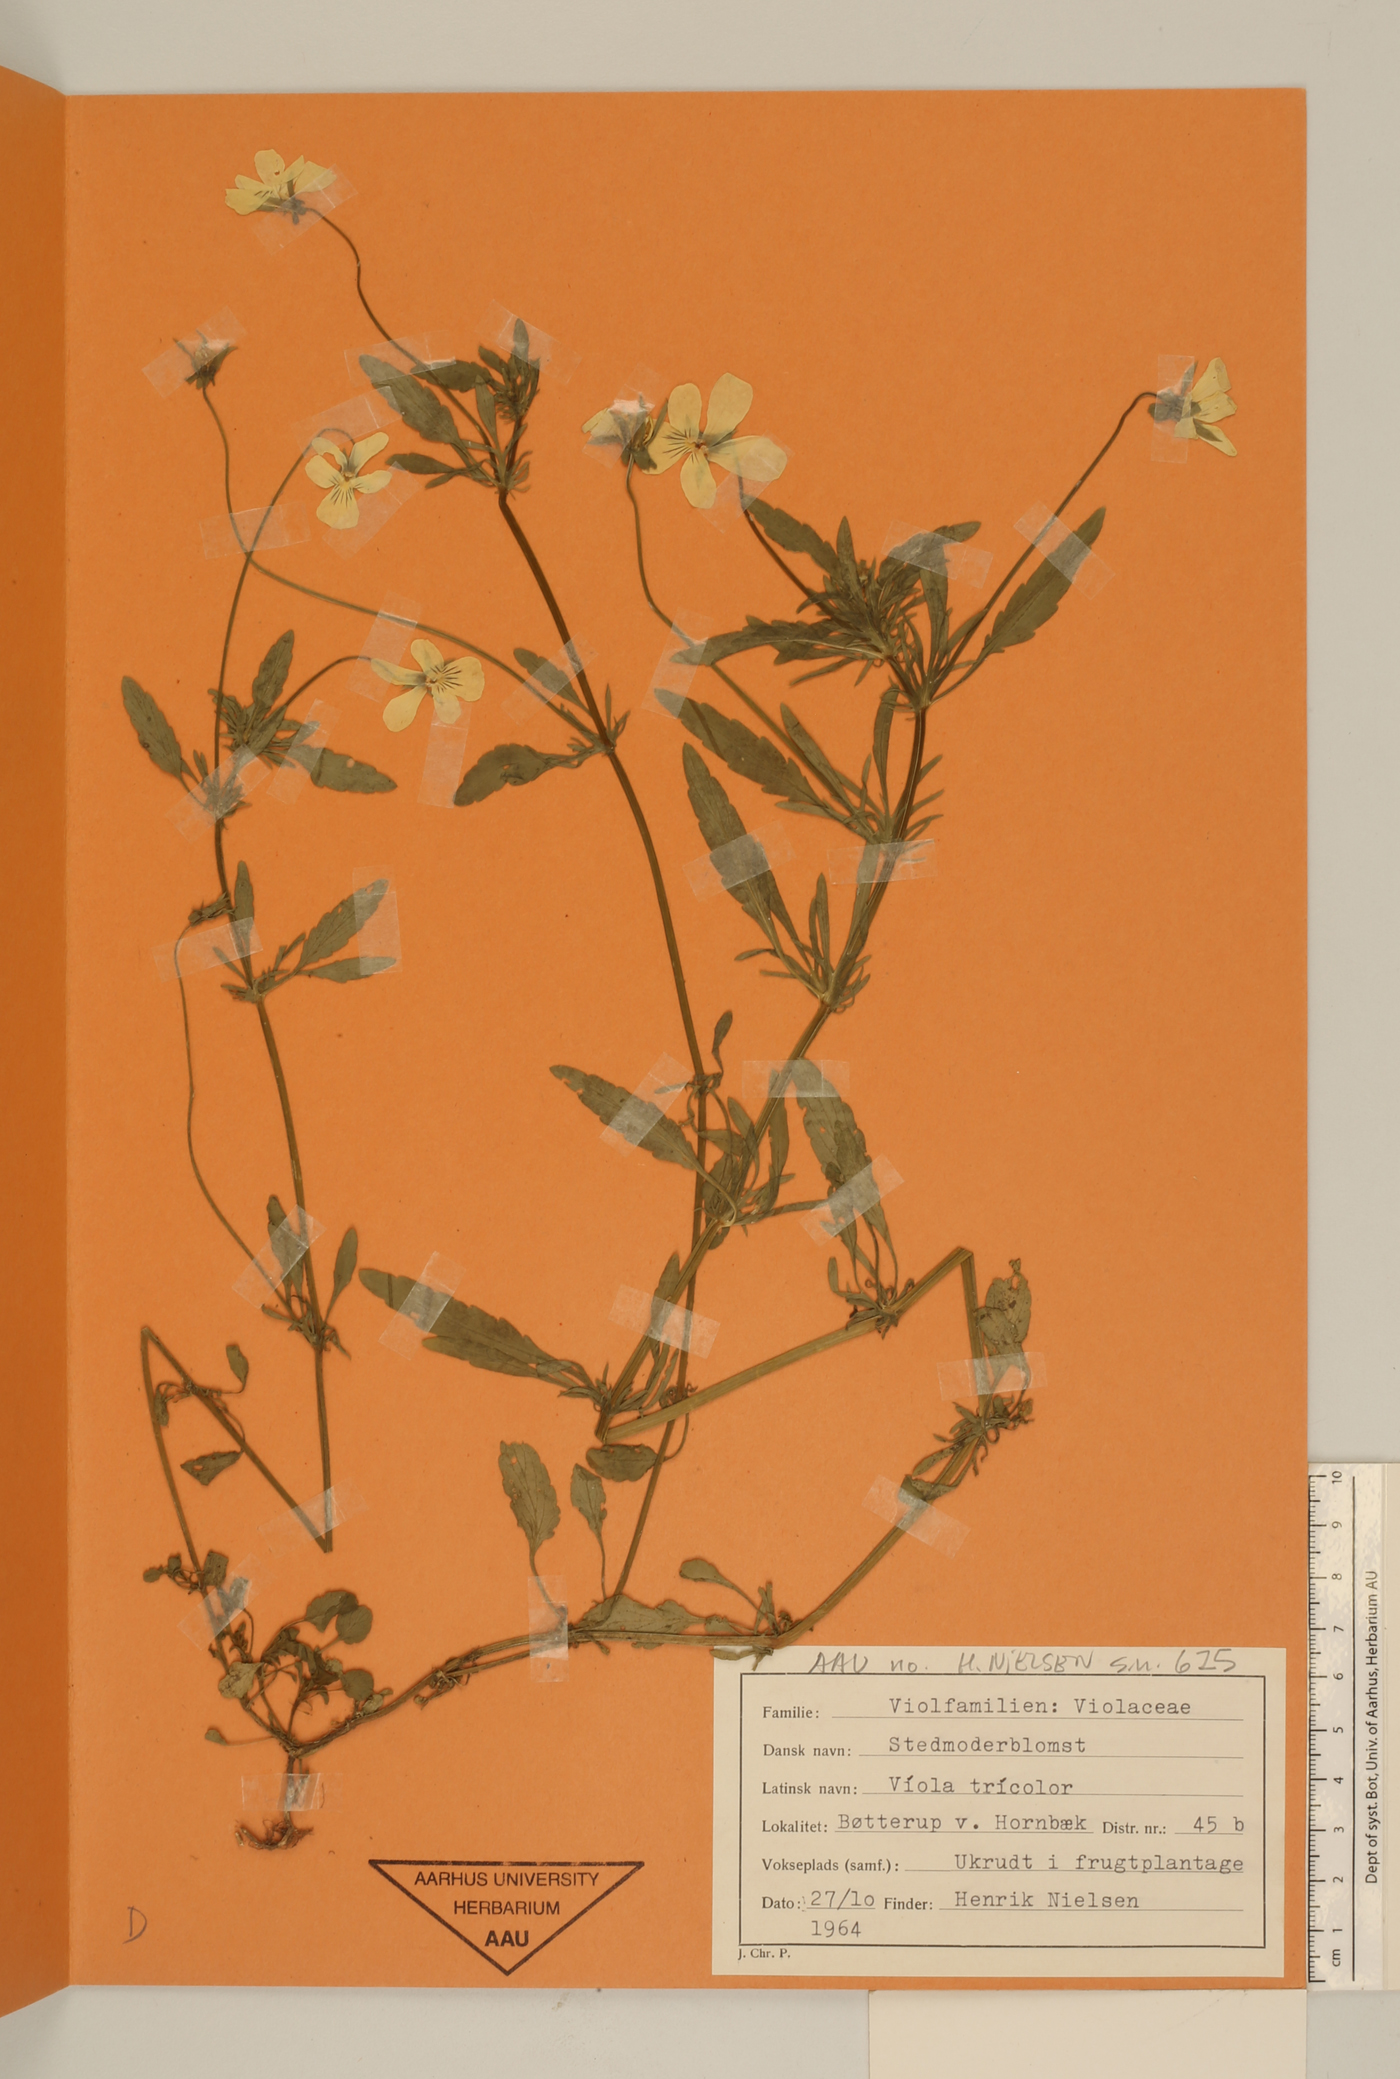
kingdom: Plantae
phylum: Tracheophyta
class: Magnoliopsida
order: Malpighiales
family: Violaceae
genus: Viola
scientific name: Viola tricolor
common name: Pansy
